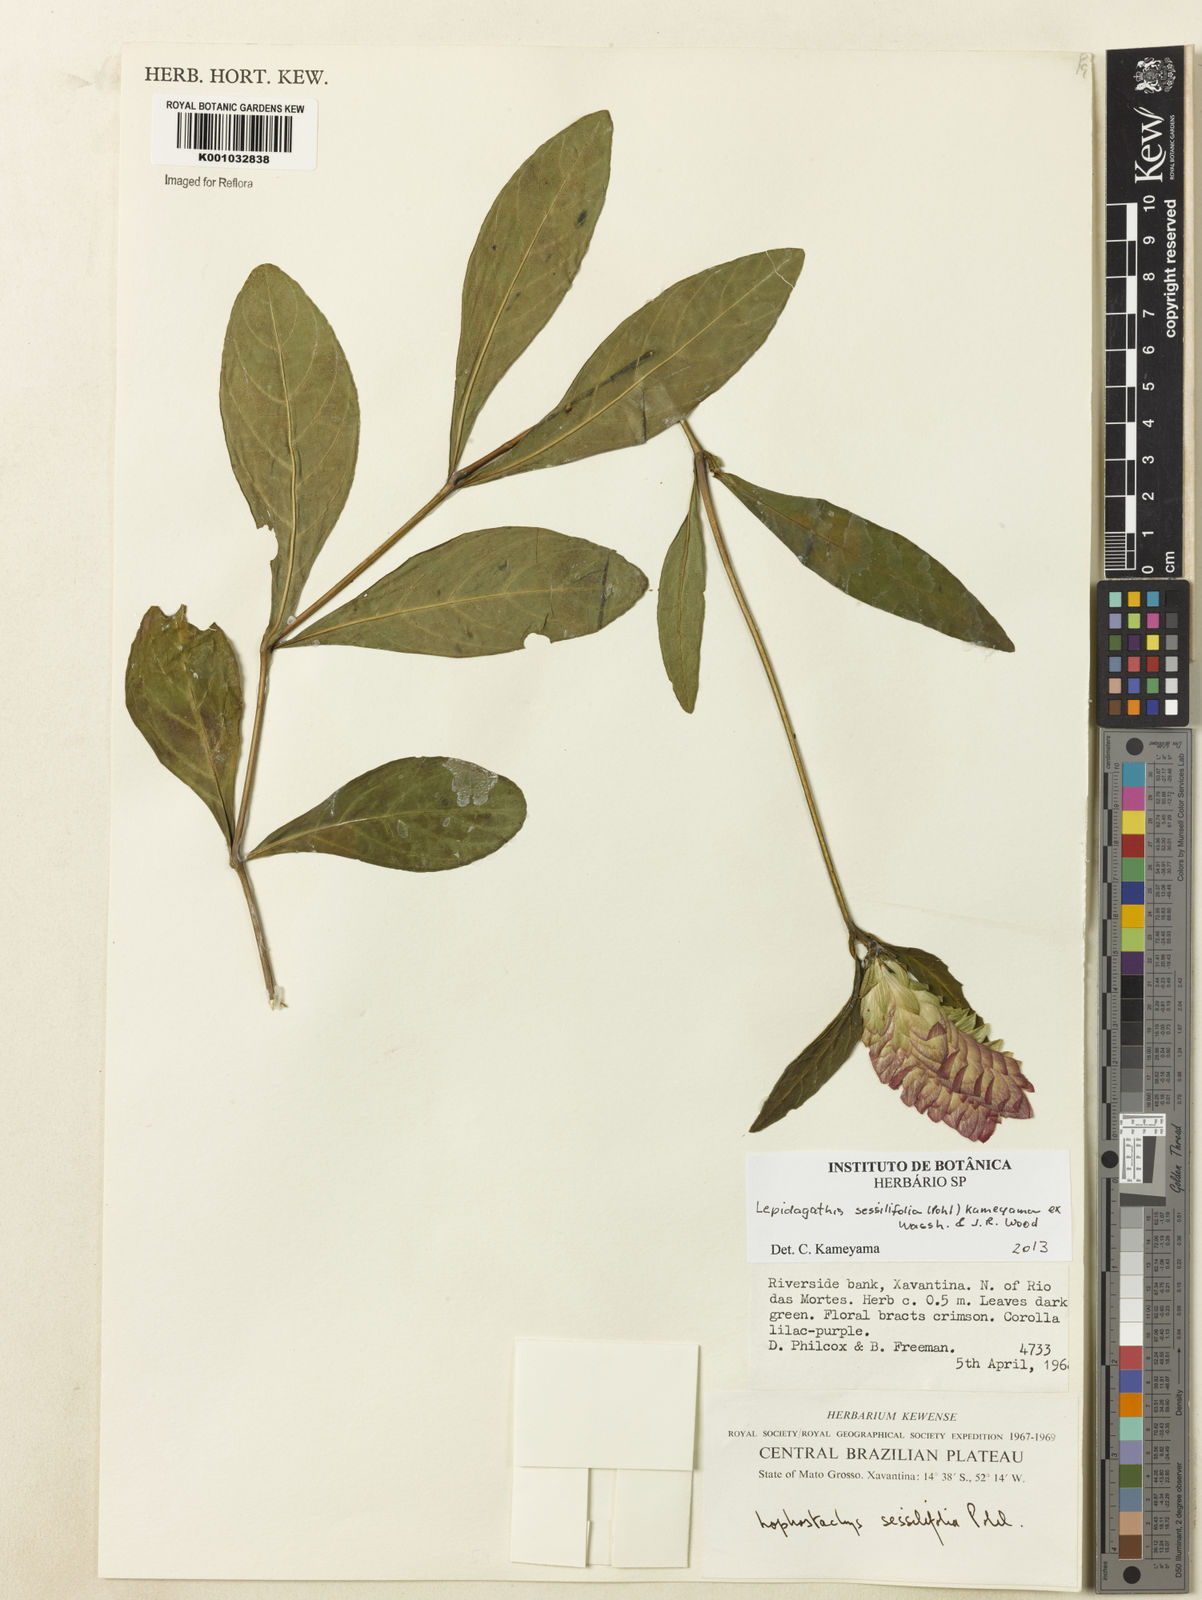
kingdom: Plantae
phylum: Tracheophyta
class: Magnoliopsida
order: Lamiales
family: Acanthaceae
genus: Lepidagathis
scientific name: Lepidagathis sessilifolia
